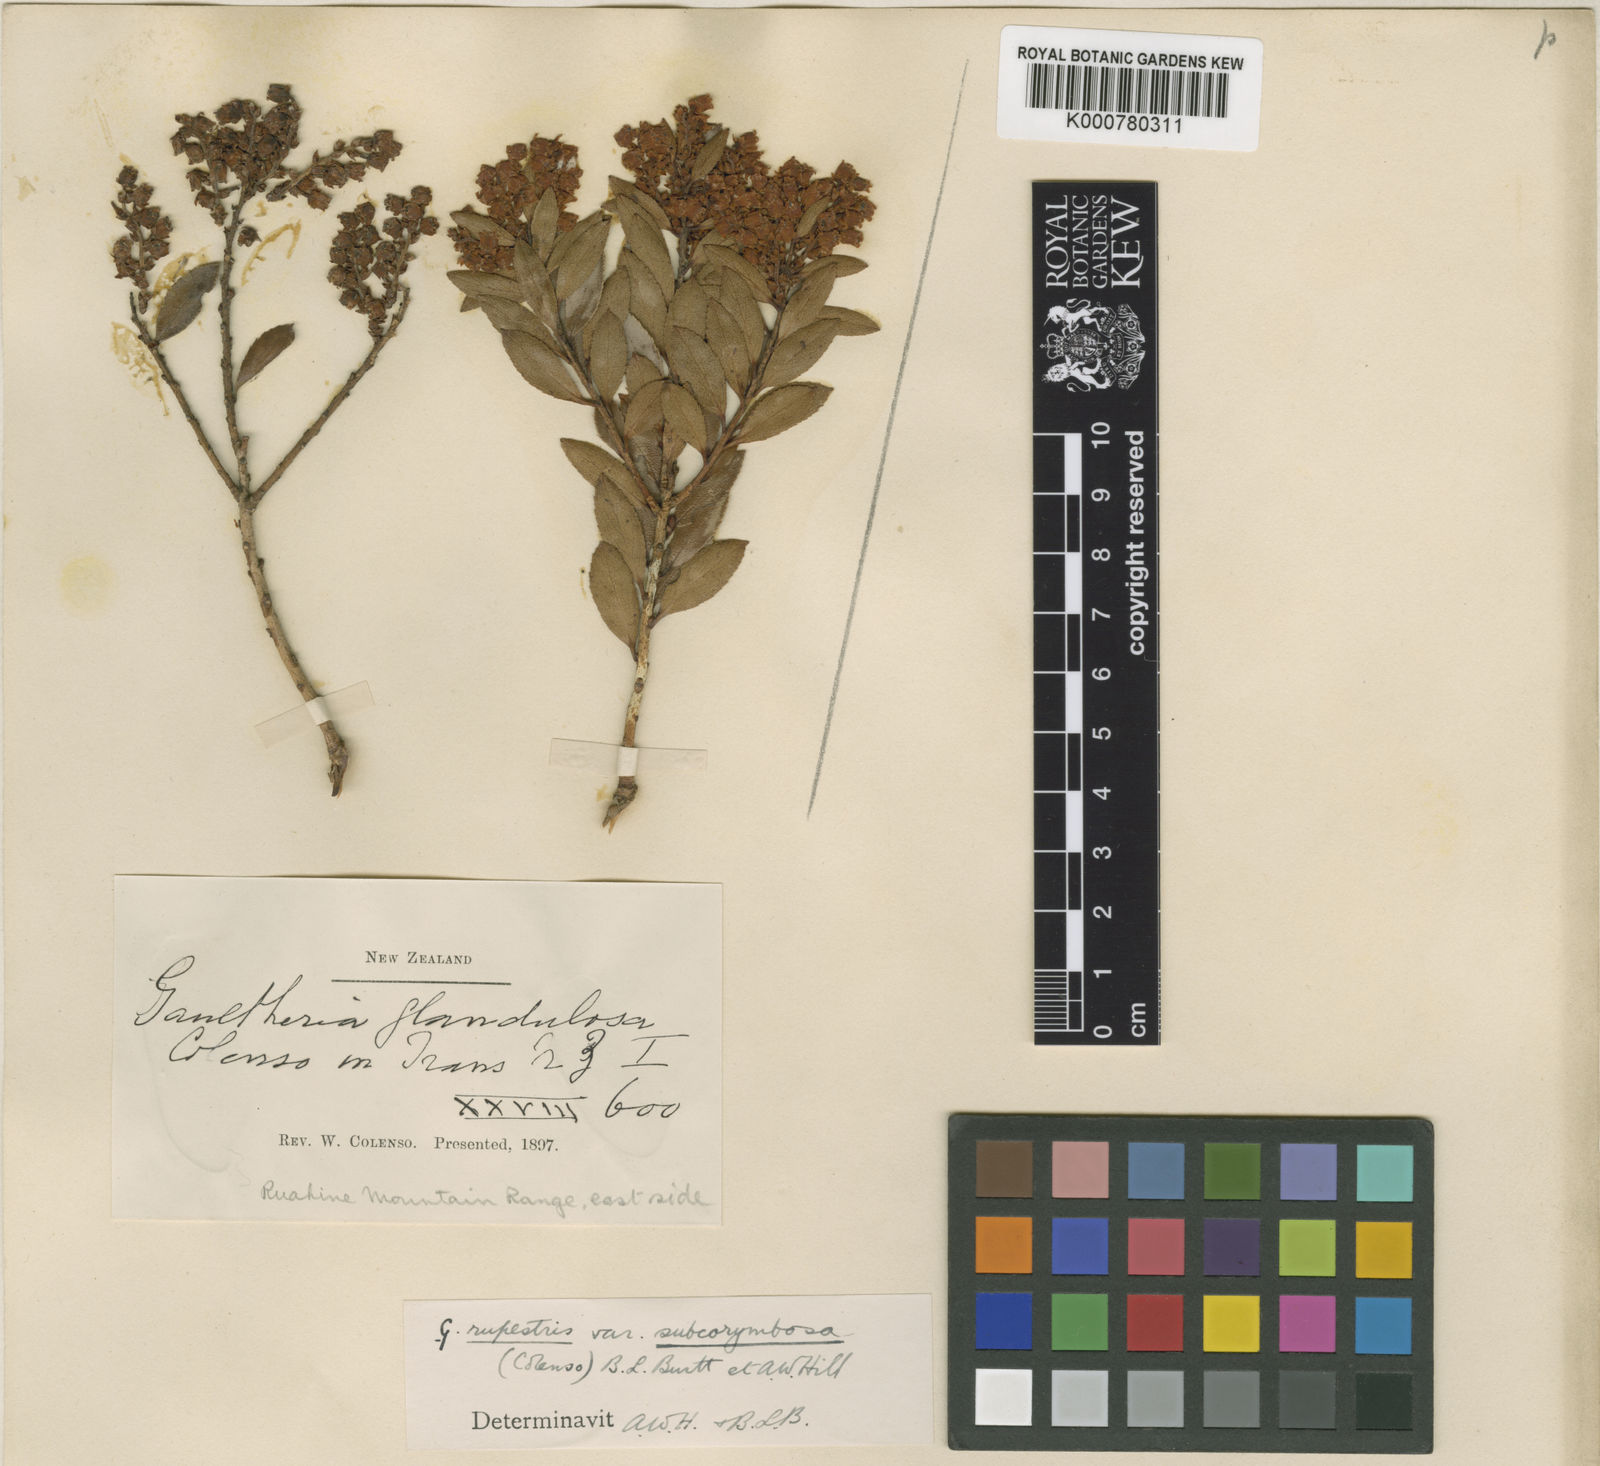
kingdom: Plantae
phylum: Tracheophyta
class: Magnoliopsida
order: Ericales
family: Ericaceae
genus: Gaultheria
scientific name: Gaultheria
